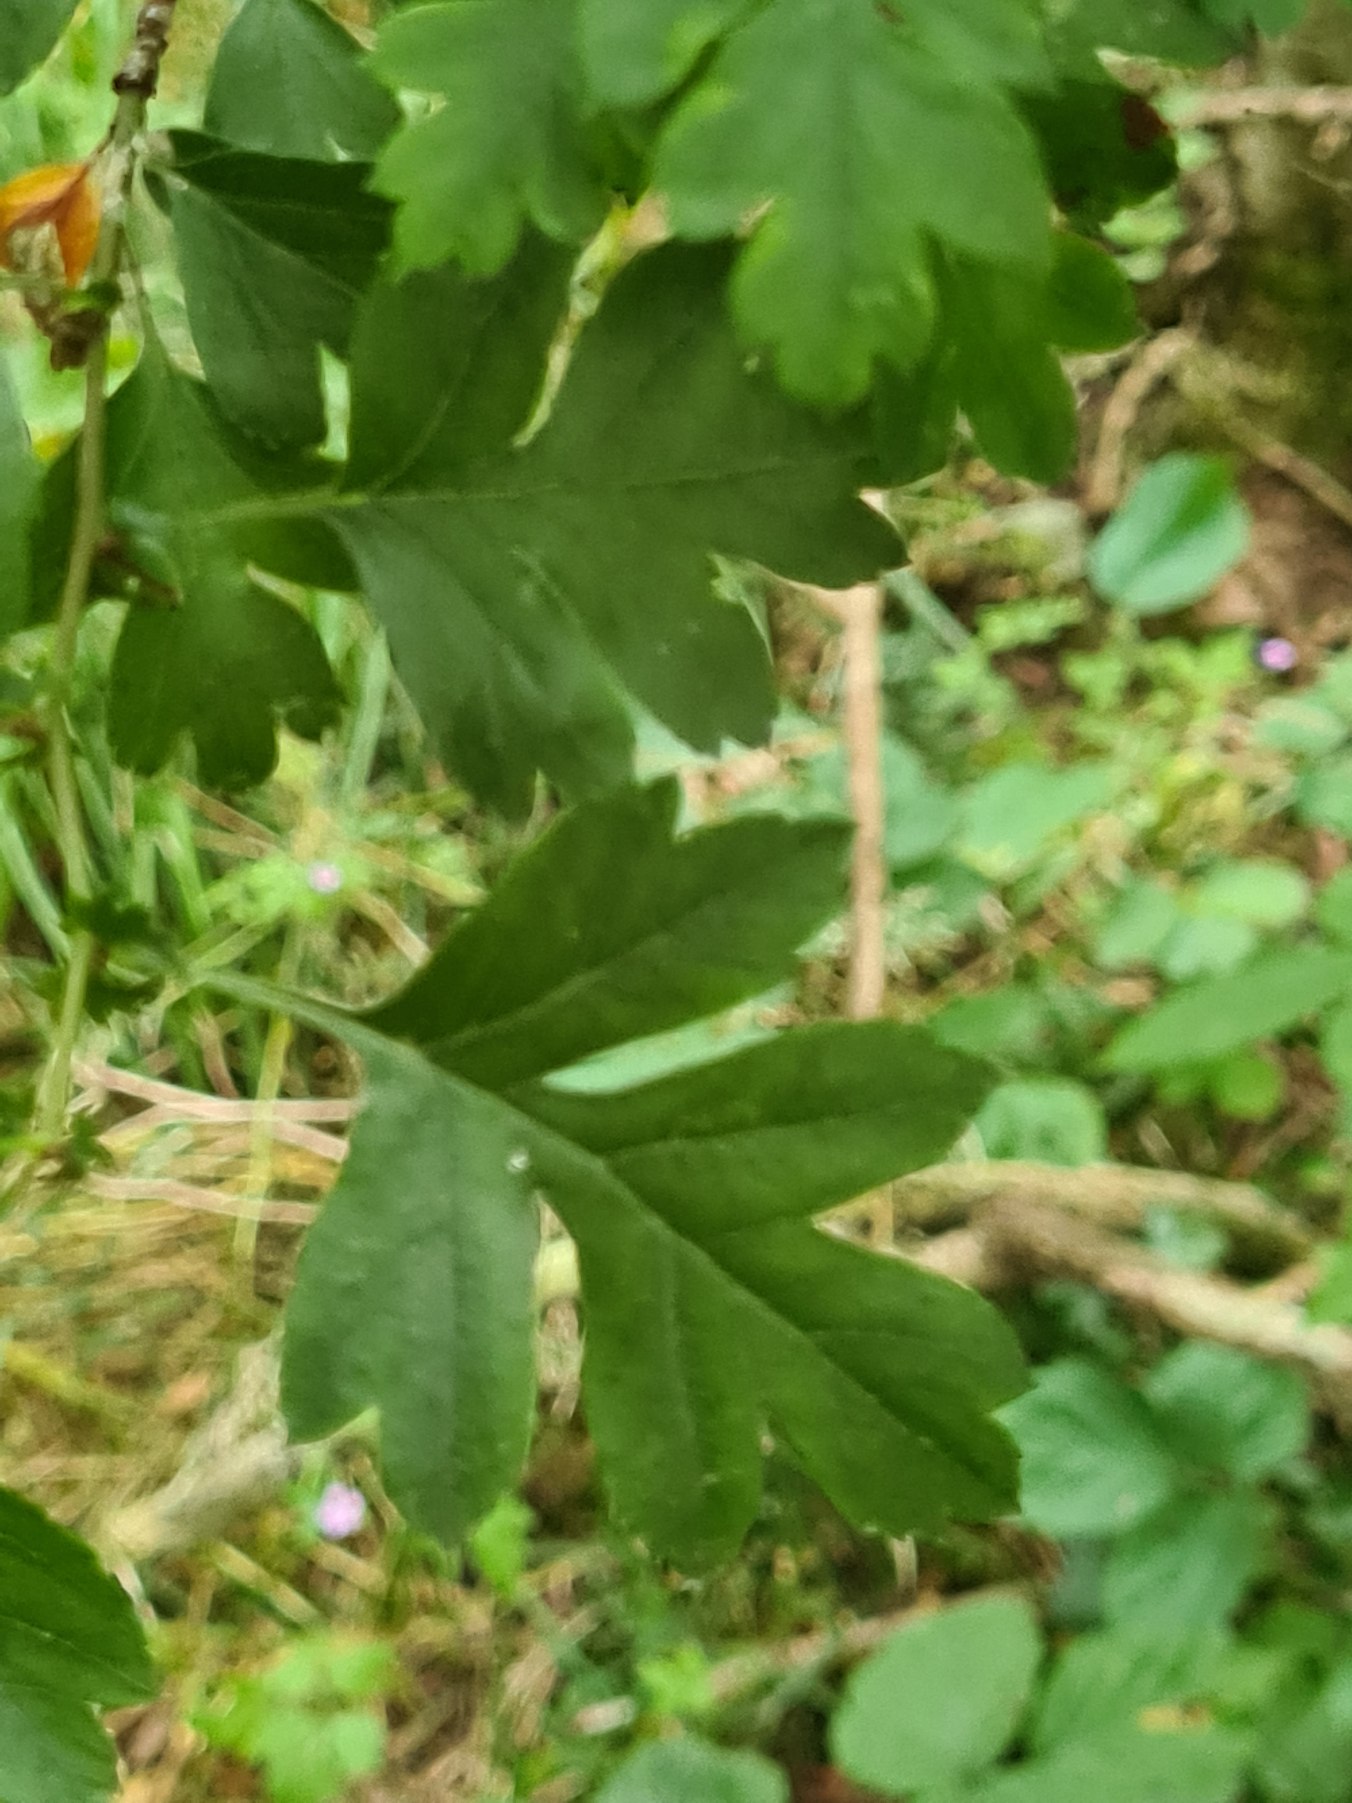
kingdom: Plantae
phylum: Tracheophyta
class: Magnoliopsida
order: Rosales
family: Rosaceae
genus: Crataegus
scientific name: Crataegus monogyna
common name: Engriflet hvidtjørn
